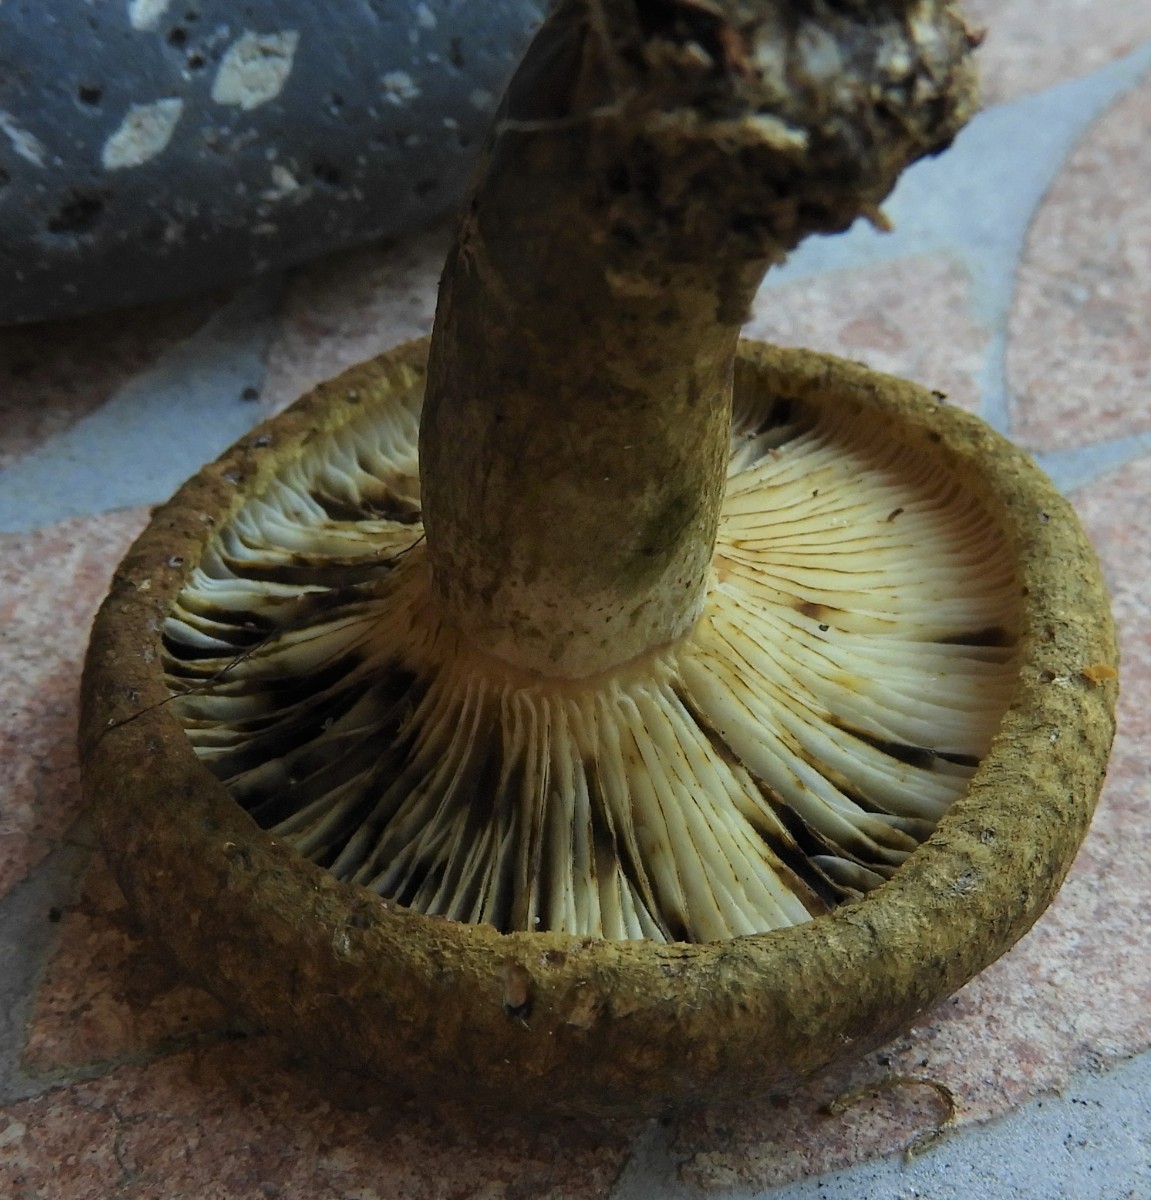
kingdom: Fungi
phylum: Basidiomycota
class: Agaricomycetes
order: Russulales
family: Russulaceae
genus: Lactarius
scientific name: Lactarius necator
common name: manddraber-mælkehat
